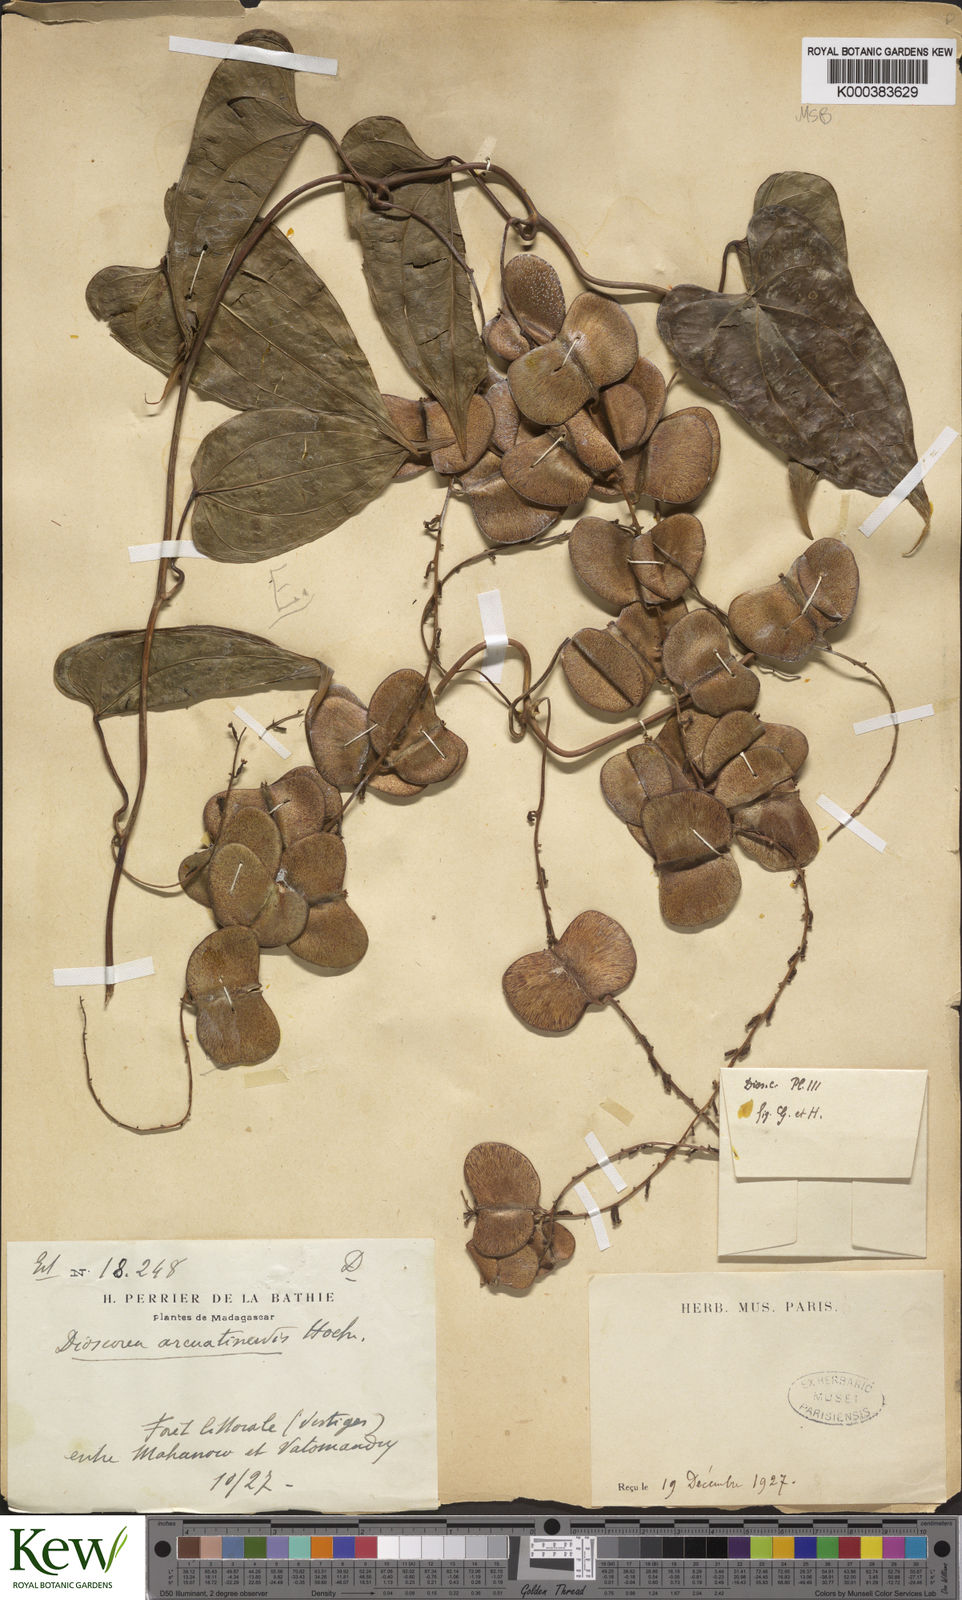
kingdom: Plantae
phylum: Tracheophyta
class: Liliopsida
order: Dioscoreales
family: Dioscoreaceae
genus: Dioscorea
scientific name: Dioscorea arcuatinervis
